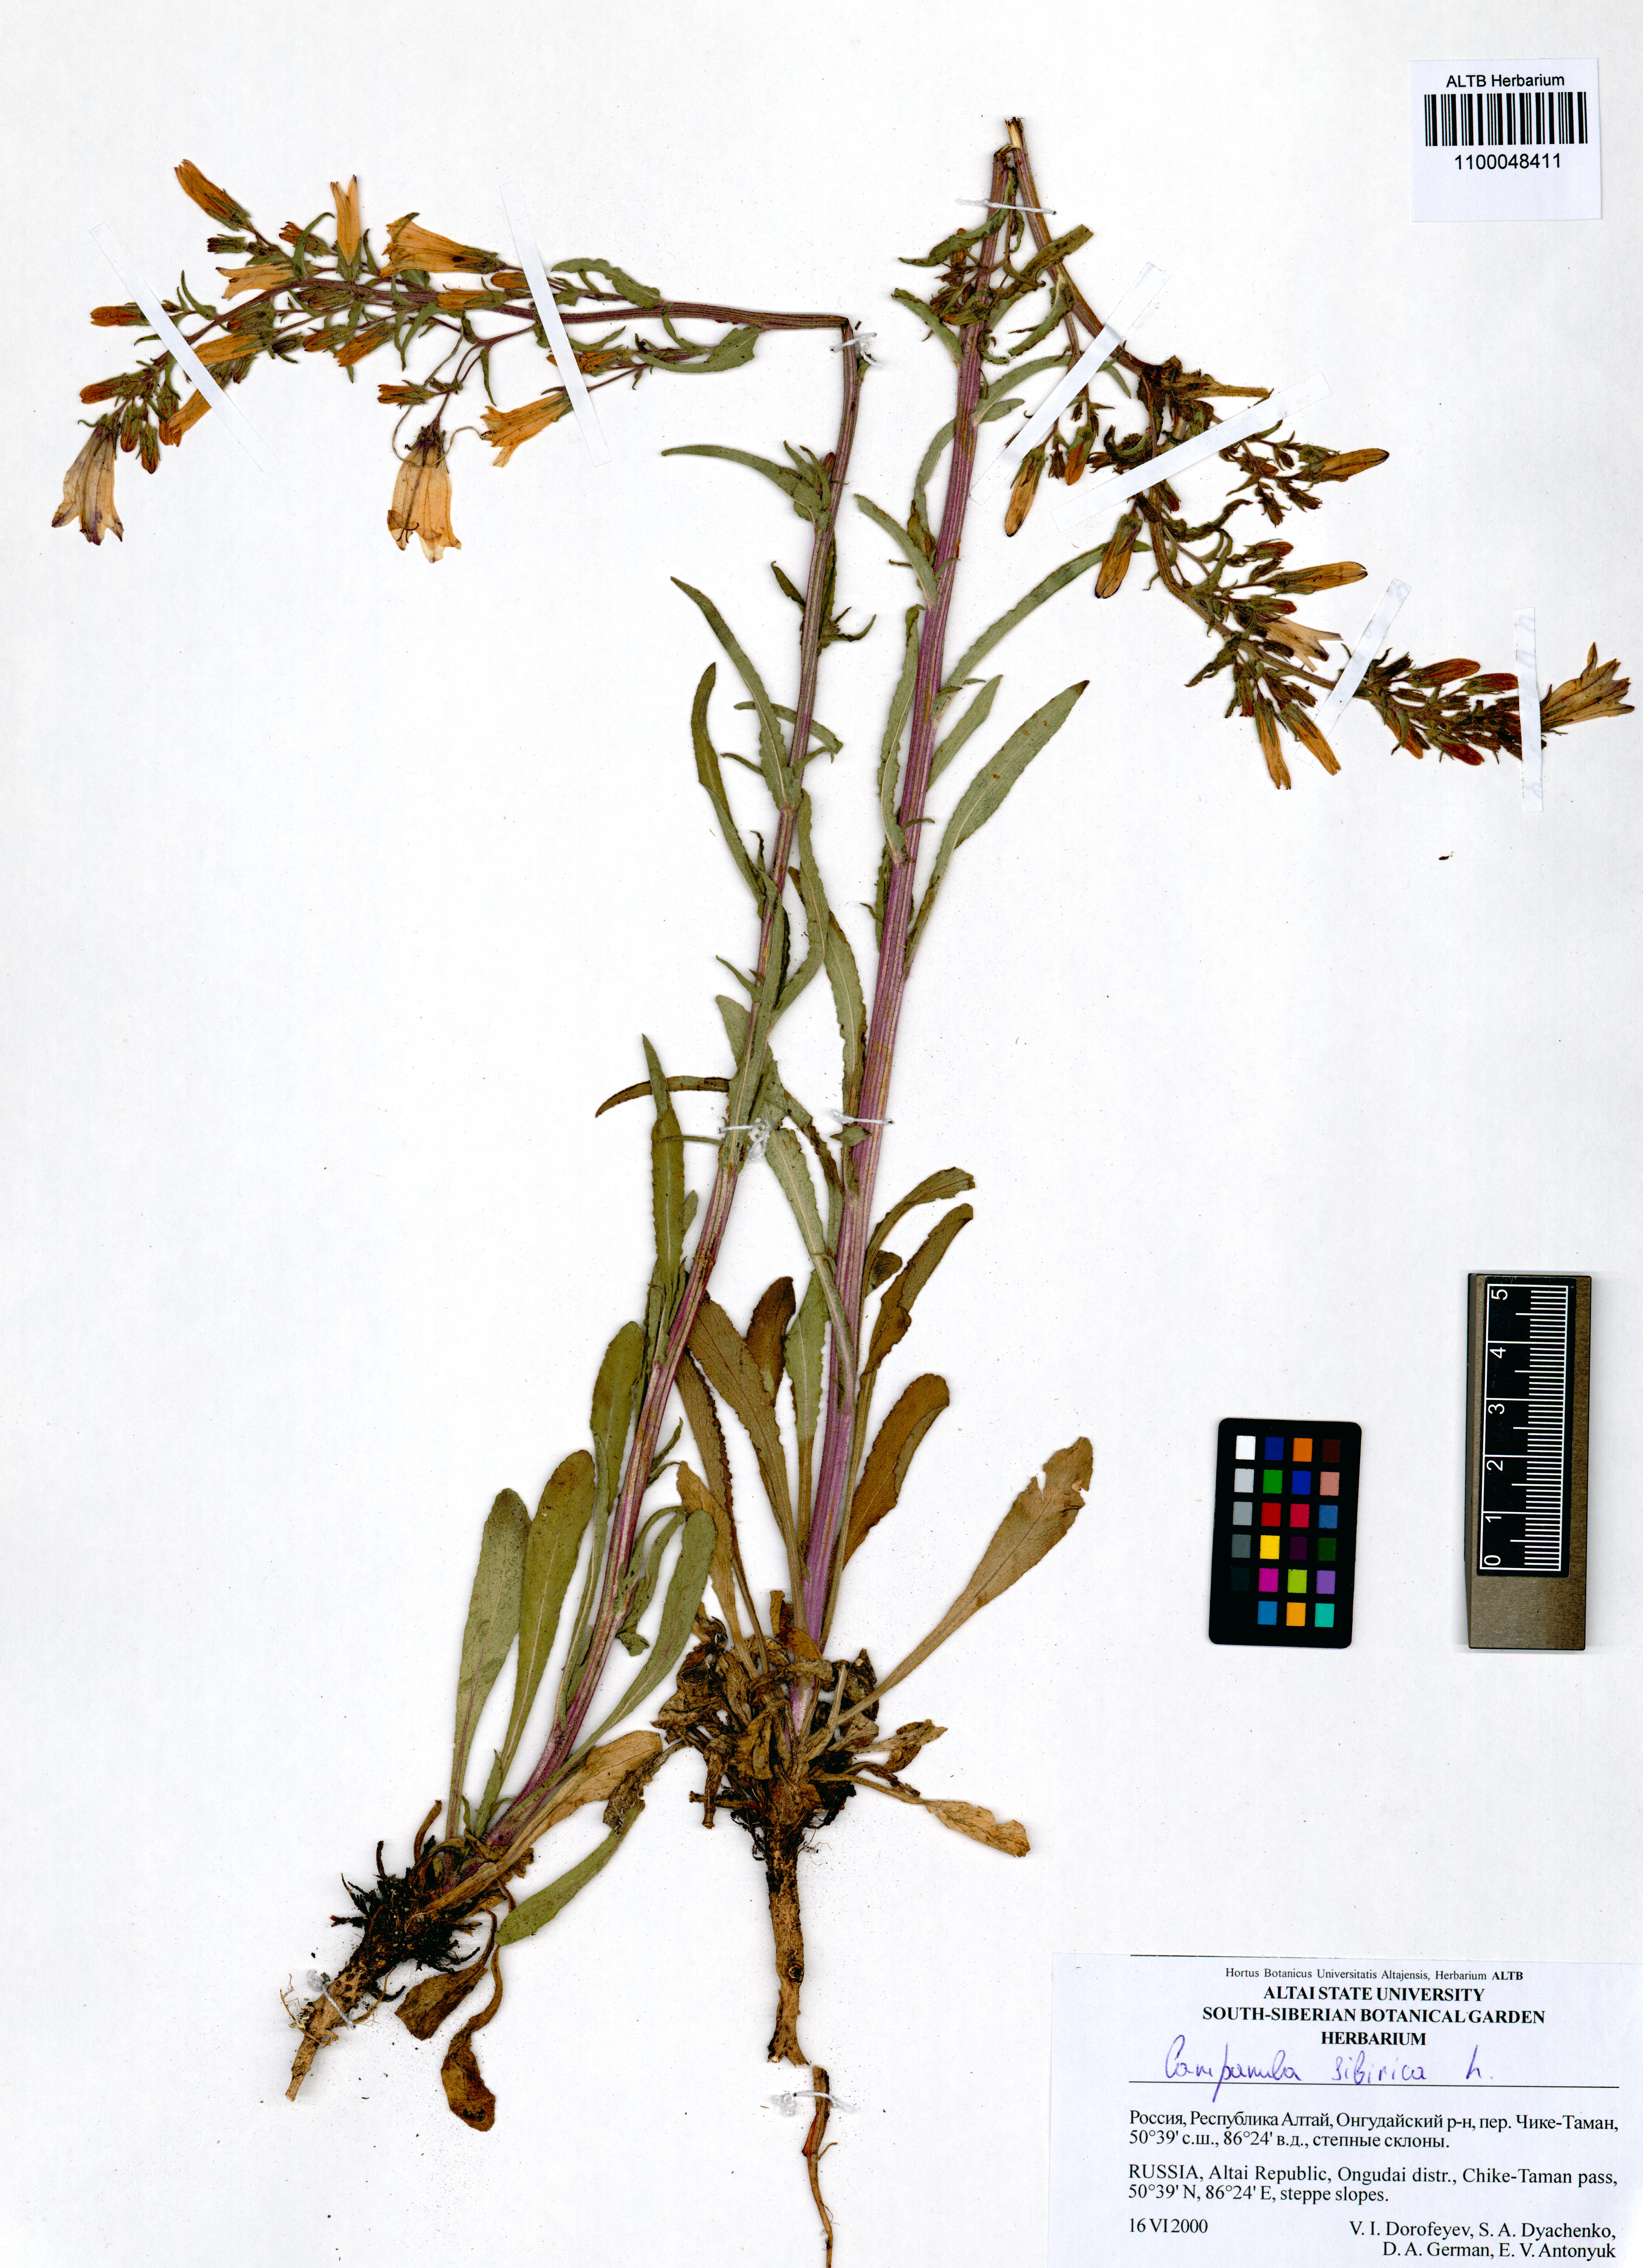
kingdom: Plantae
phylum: Tracheophyta
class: Magnoliopsida
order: Asterales
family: Campanulaceae
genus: Campanula
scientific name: Campanula sibirica
